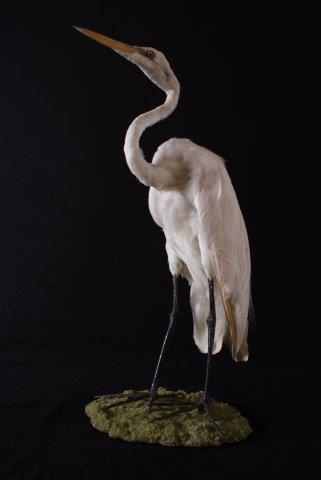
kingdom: Animalia
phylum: Chordata
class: Aves
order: Pelecaniformes
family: Ardeidae
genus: Ardea
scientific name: Ardea alba
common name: Great egret
